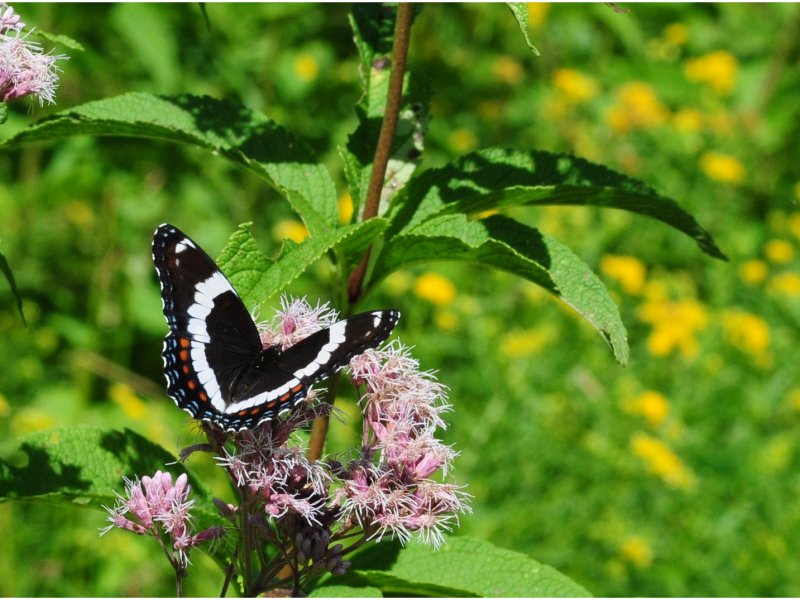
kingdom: Animalia
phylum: Arthropoda
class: Insecta
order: Lepidoptera
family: Nymphalidae
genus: Limenitis
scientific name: Limenitis arthemis
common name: Red-spotted Admiral
